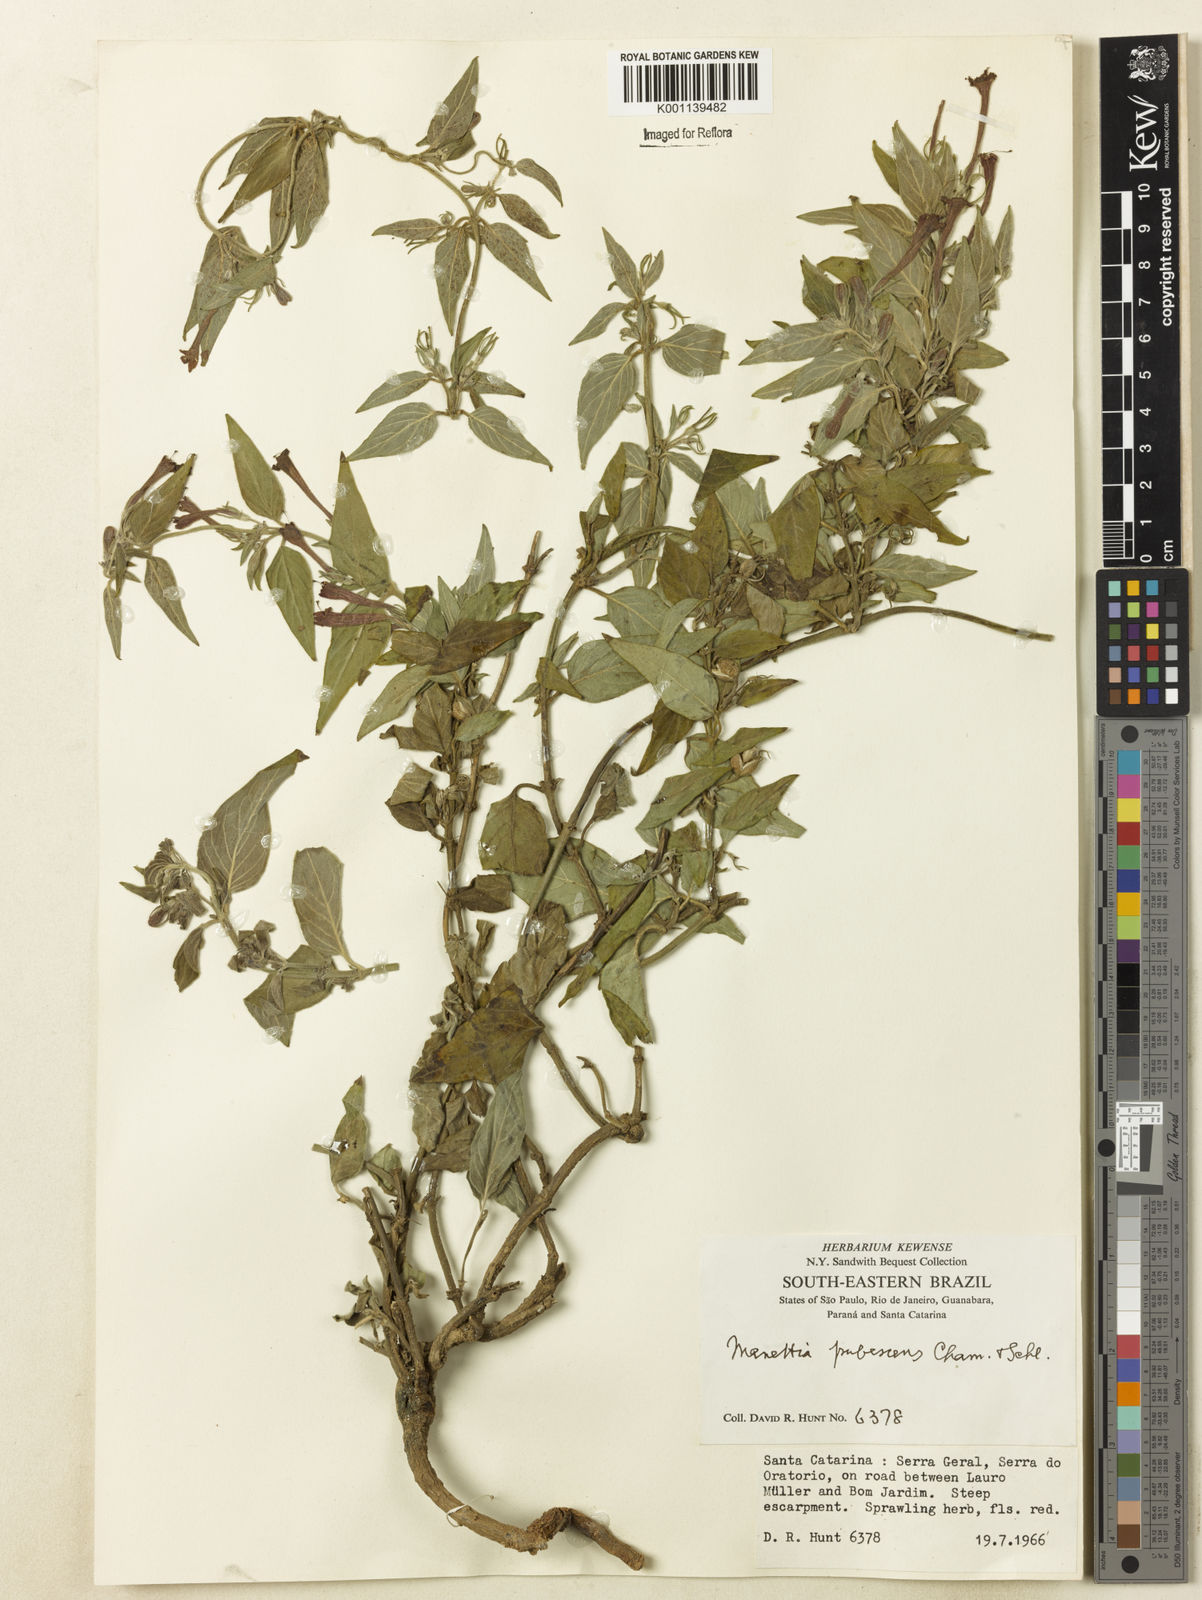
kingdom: Plantae
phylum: Tracheophyta
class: Magnoliopsida
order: Gentianales
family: Rubiaceae
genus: Manettia
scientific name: Manettia pubescens
